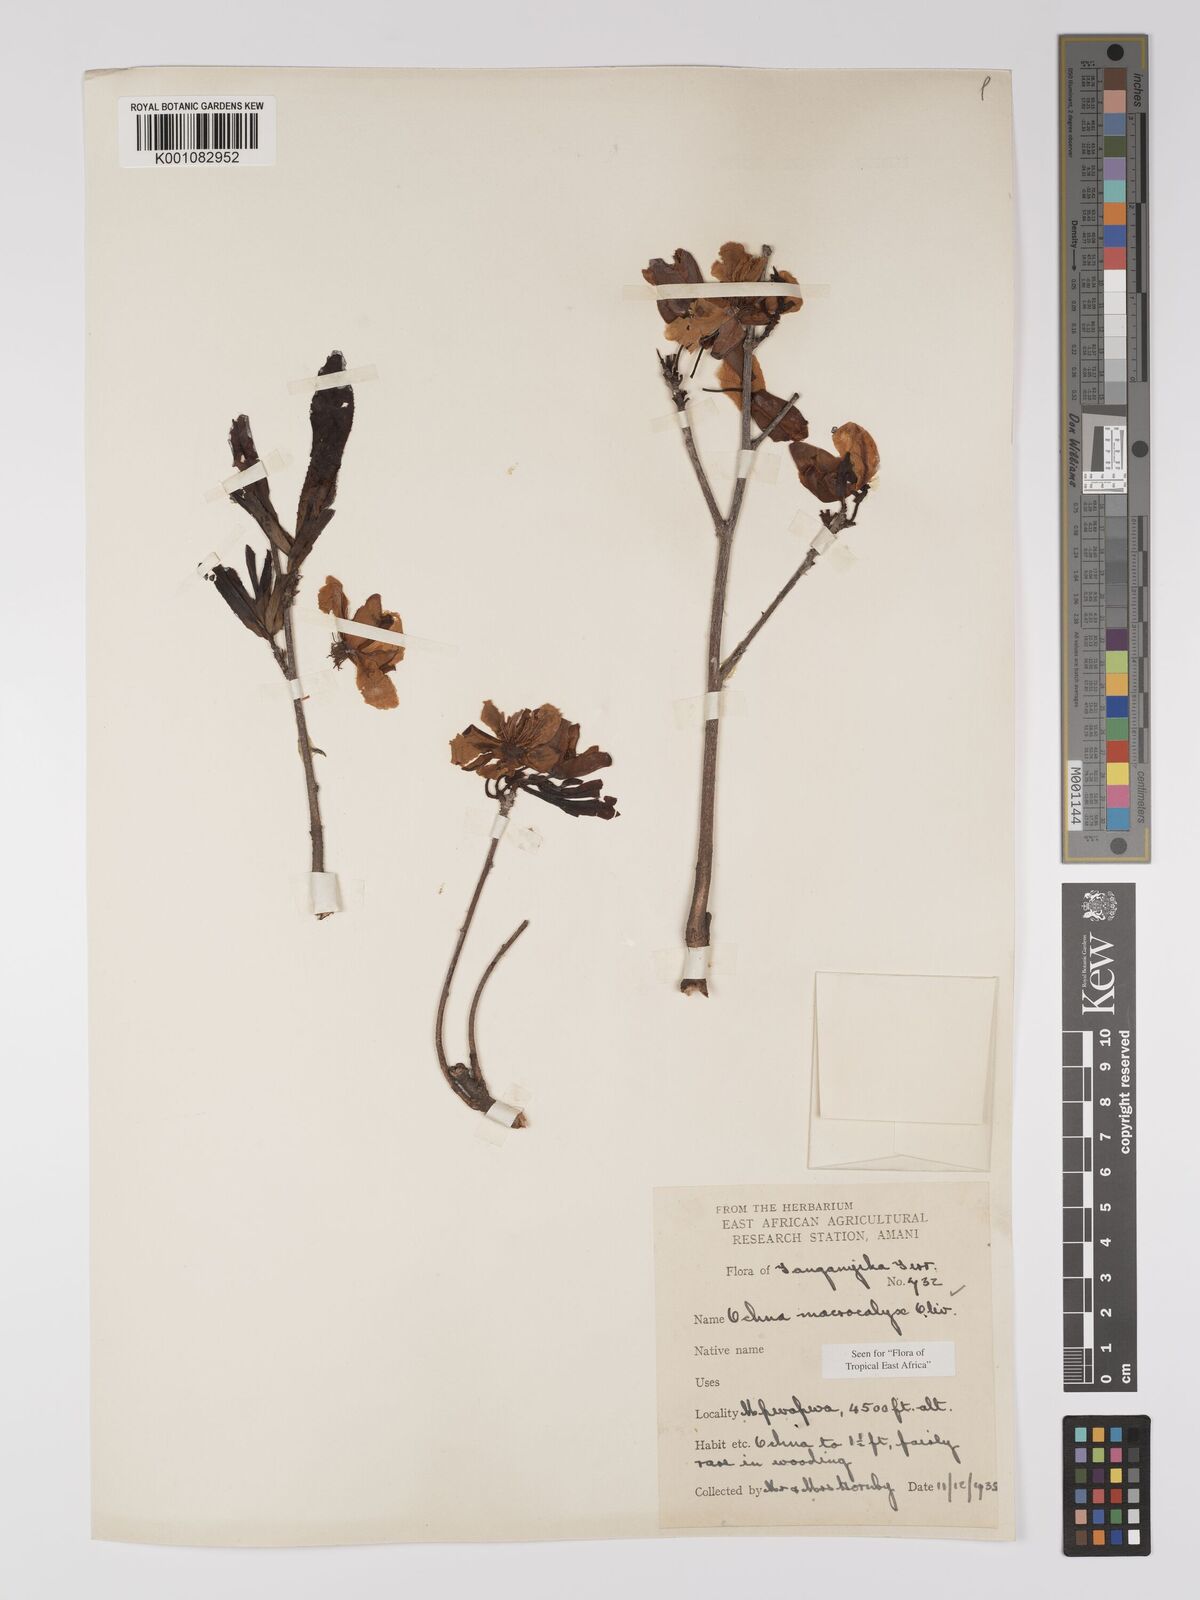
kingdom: Plantae
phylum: Tracheophyta
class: Magnoliopsida
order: Malpighiales
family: Ochnaceae
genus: Ochna
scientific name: Ochna macrocalyx
